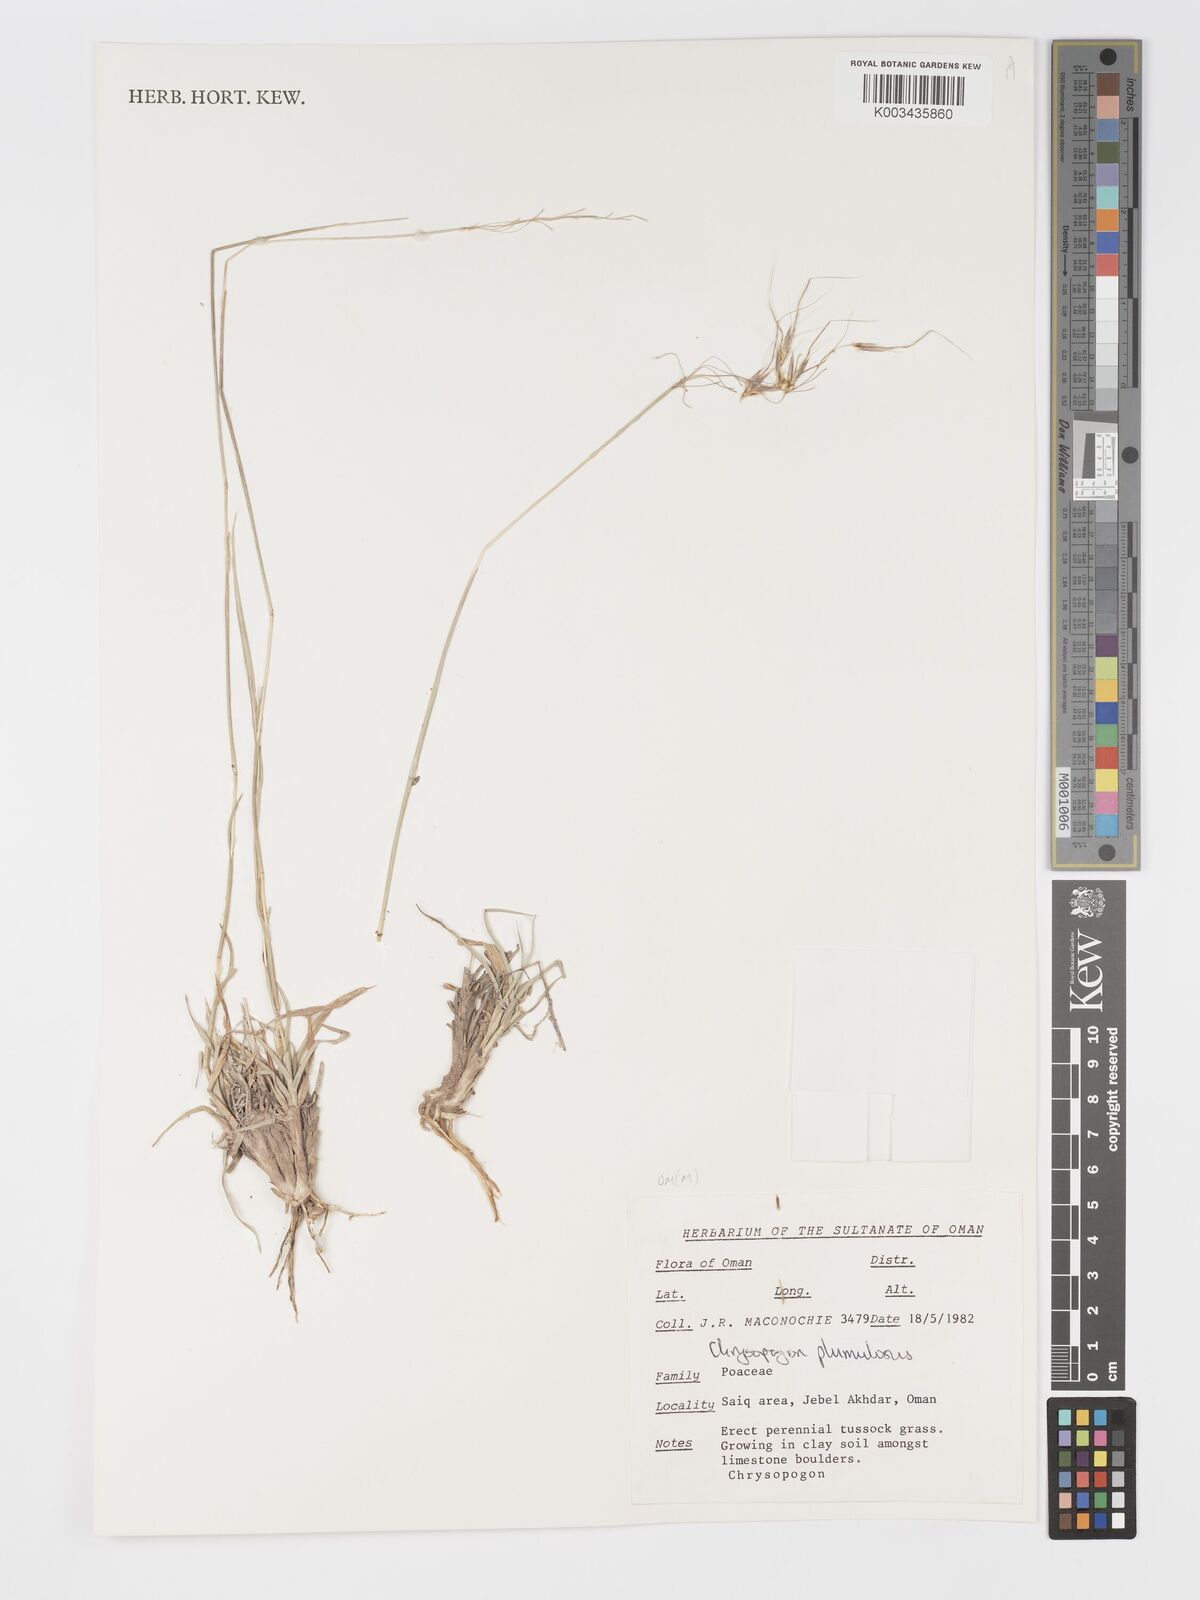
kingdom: Plantae
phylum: Tracheophyta
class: Liliopsida
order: Poales
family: Poaceae
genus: Chrysopogon
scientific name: Chrysopogon plumulosus
